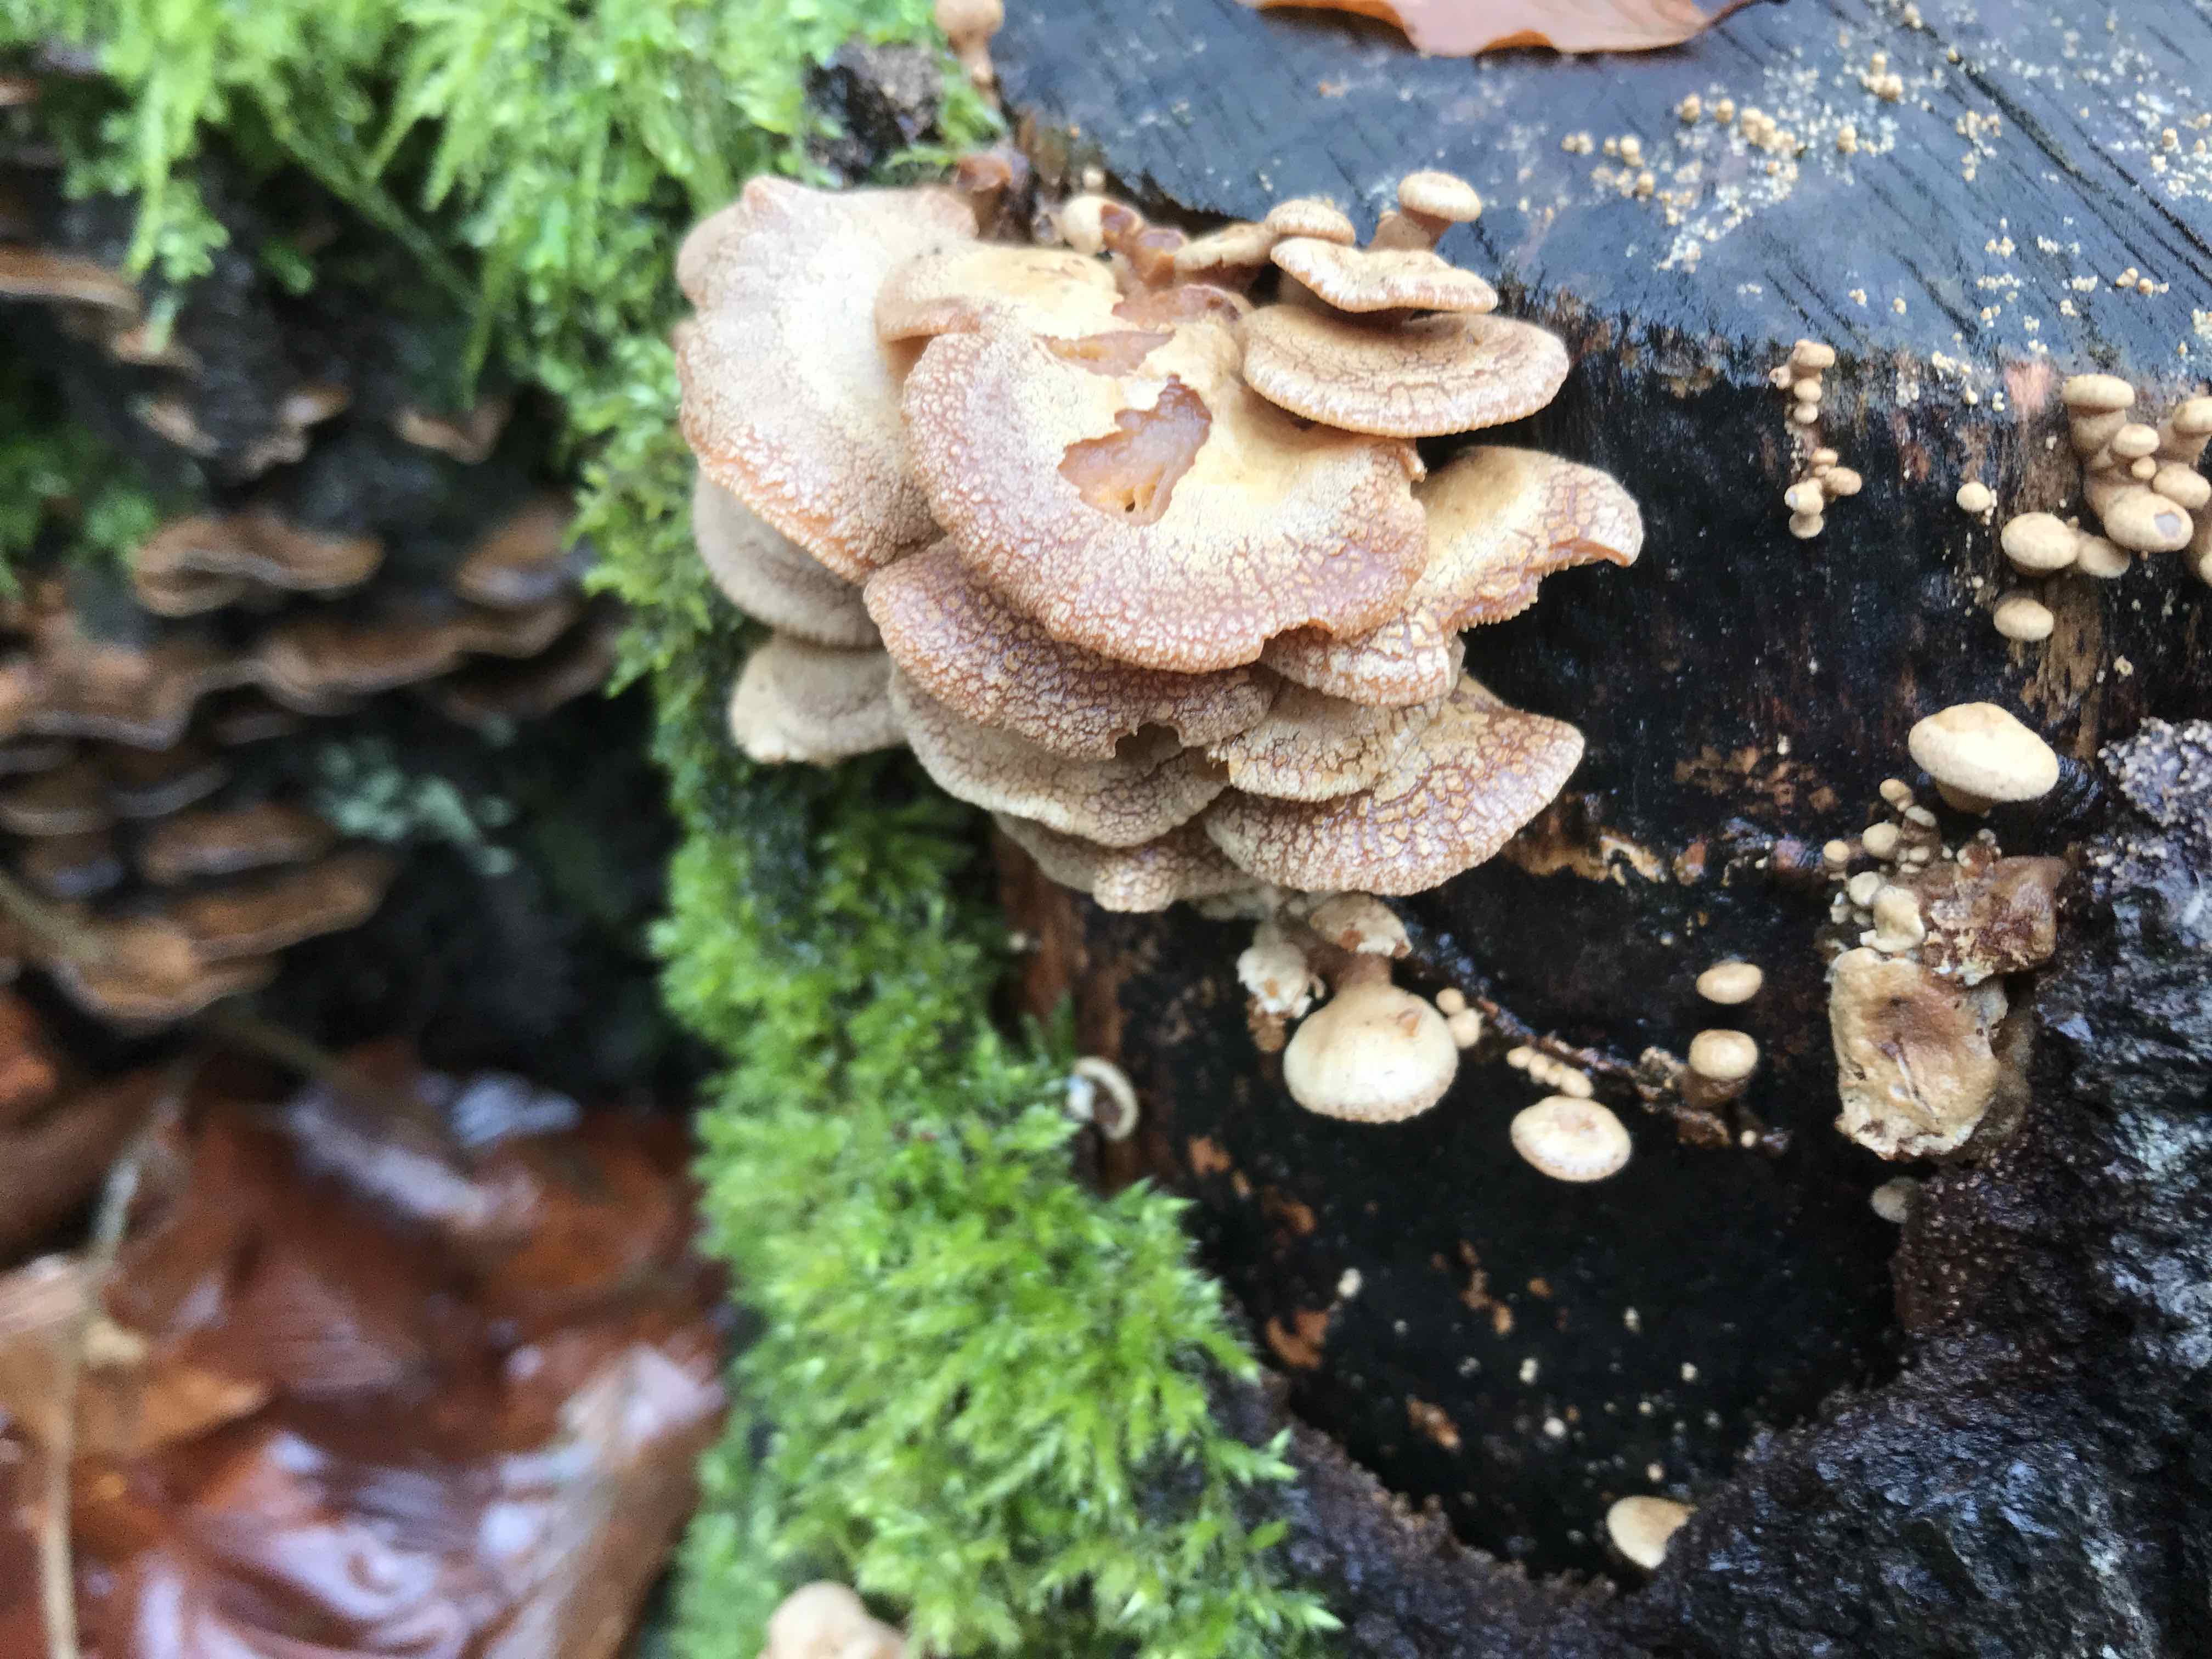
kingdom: Fungi
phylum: Basidiomycota
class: Agaricomycetes
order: Agaricales
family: Mycenaceae
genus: Panellus
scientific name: Panellus stipticus
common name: kliddet epaulethat
